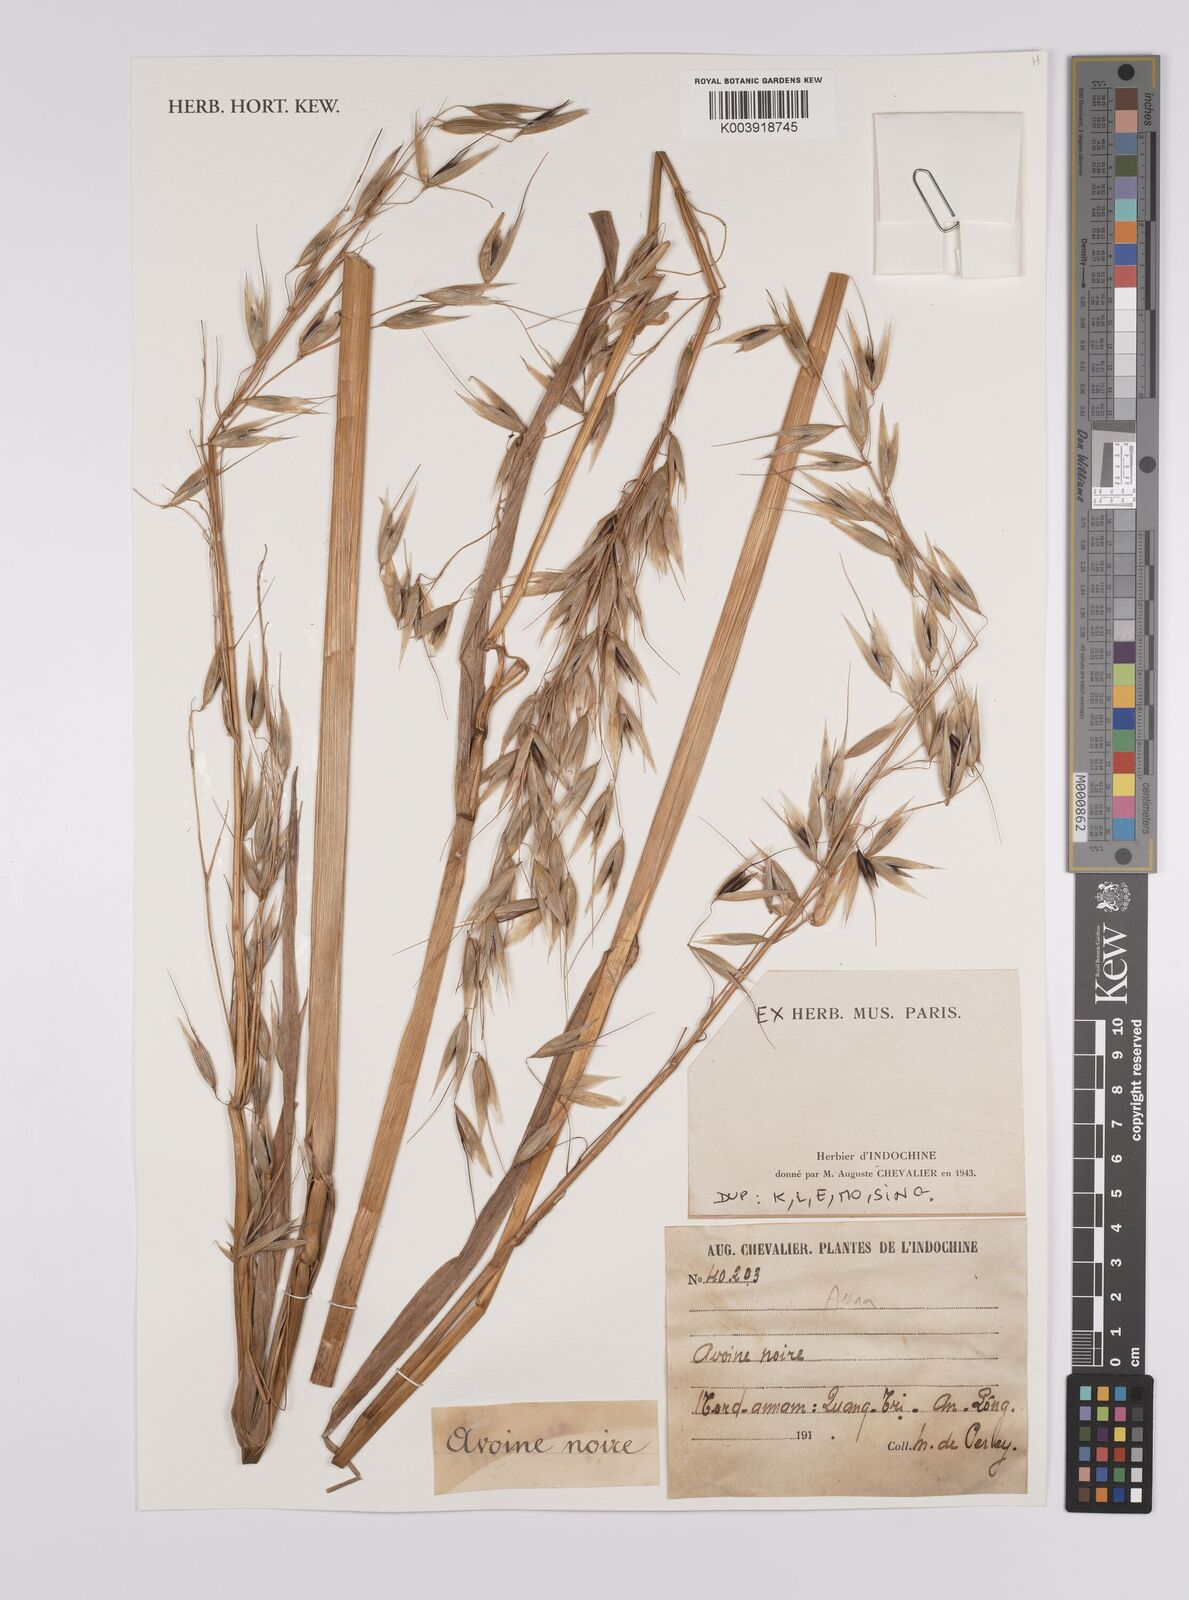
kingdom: Plantae
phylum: Tracheophyta
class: Liliopsida
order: Poales
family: Poaceae
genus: Avena
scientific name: Avena sativa
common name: Oat
